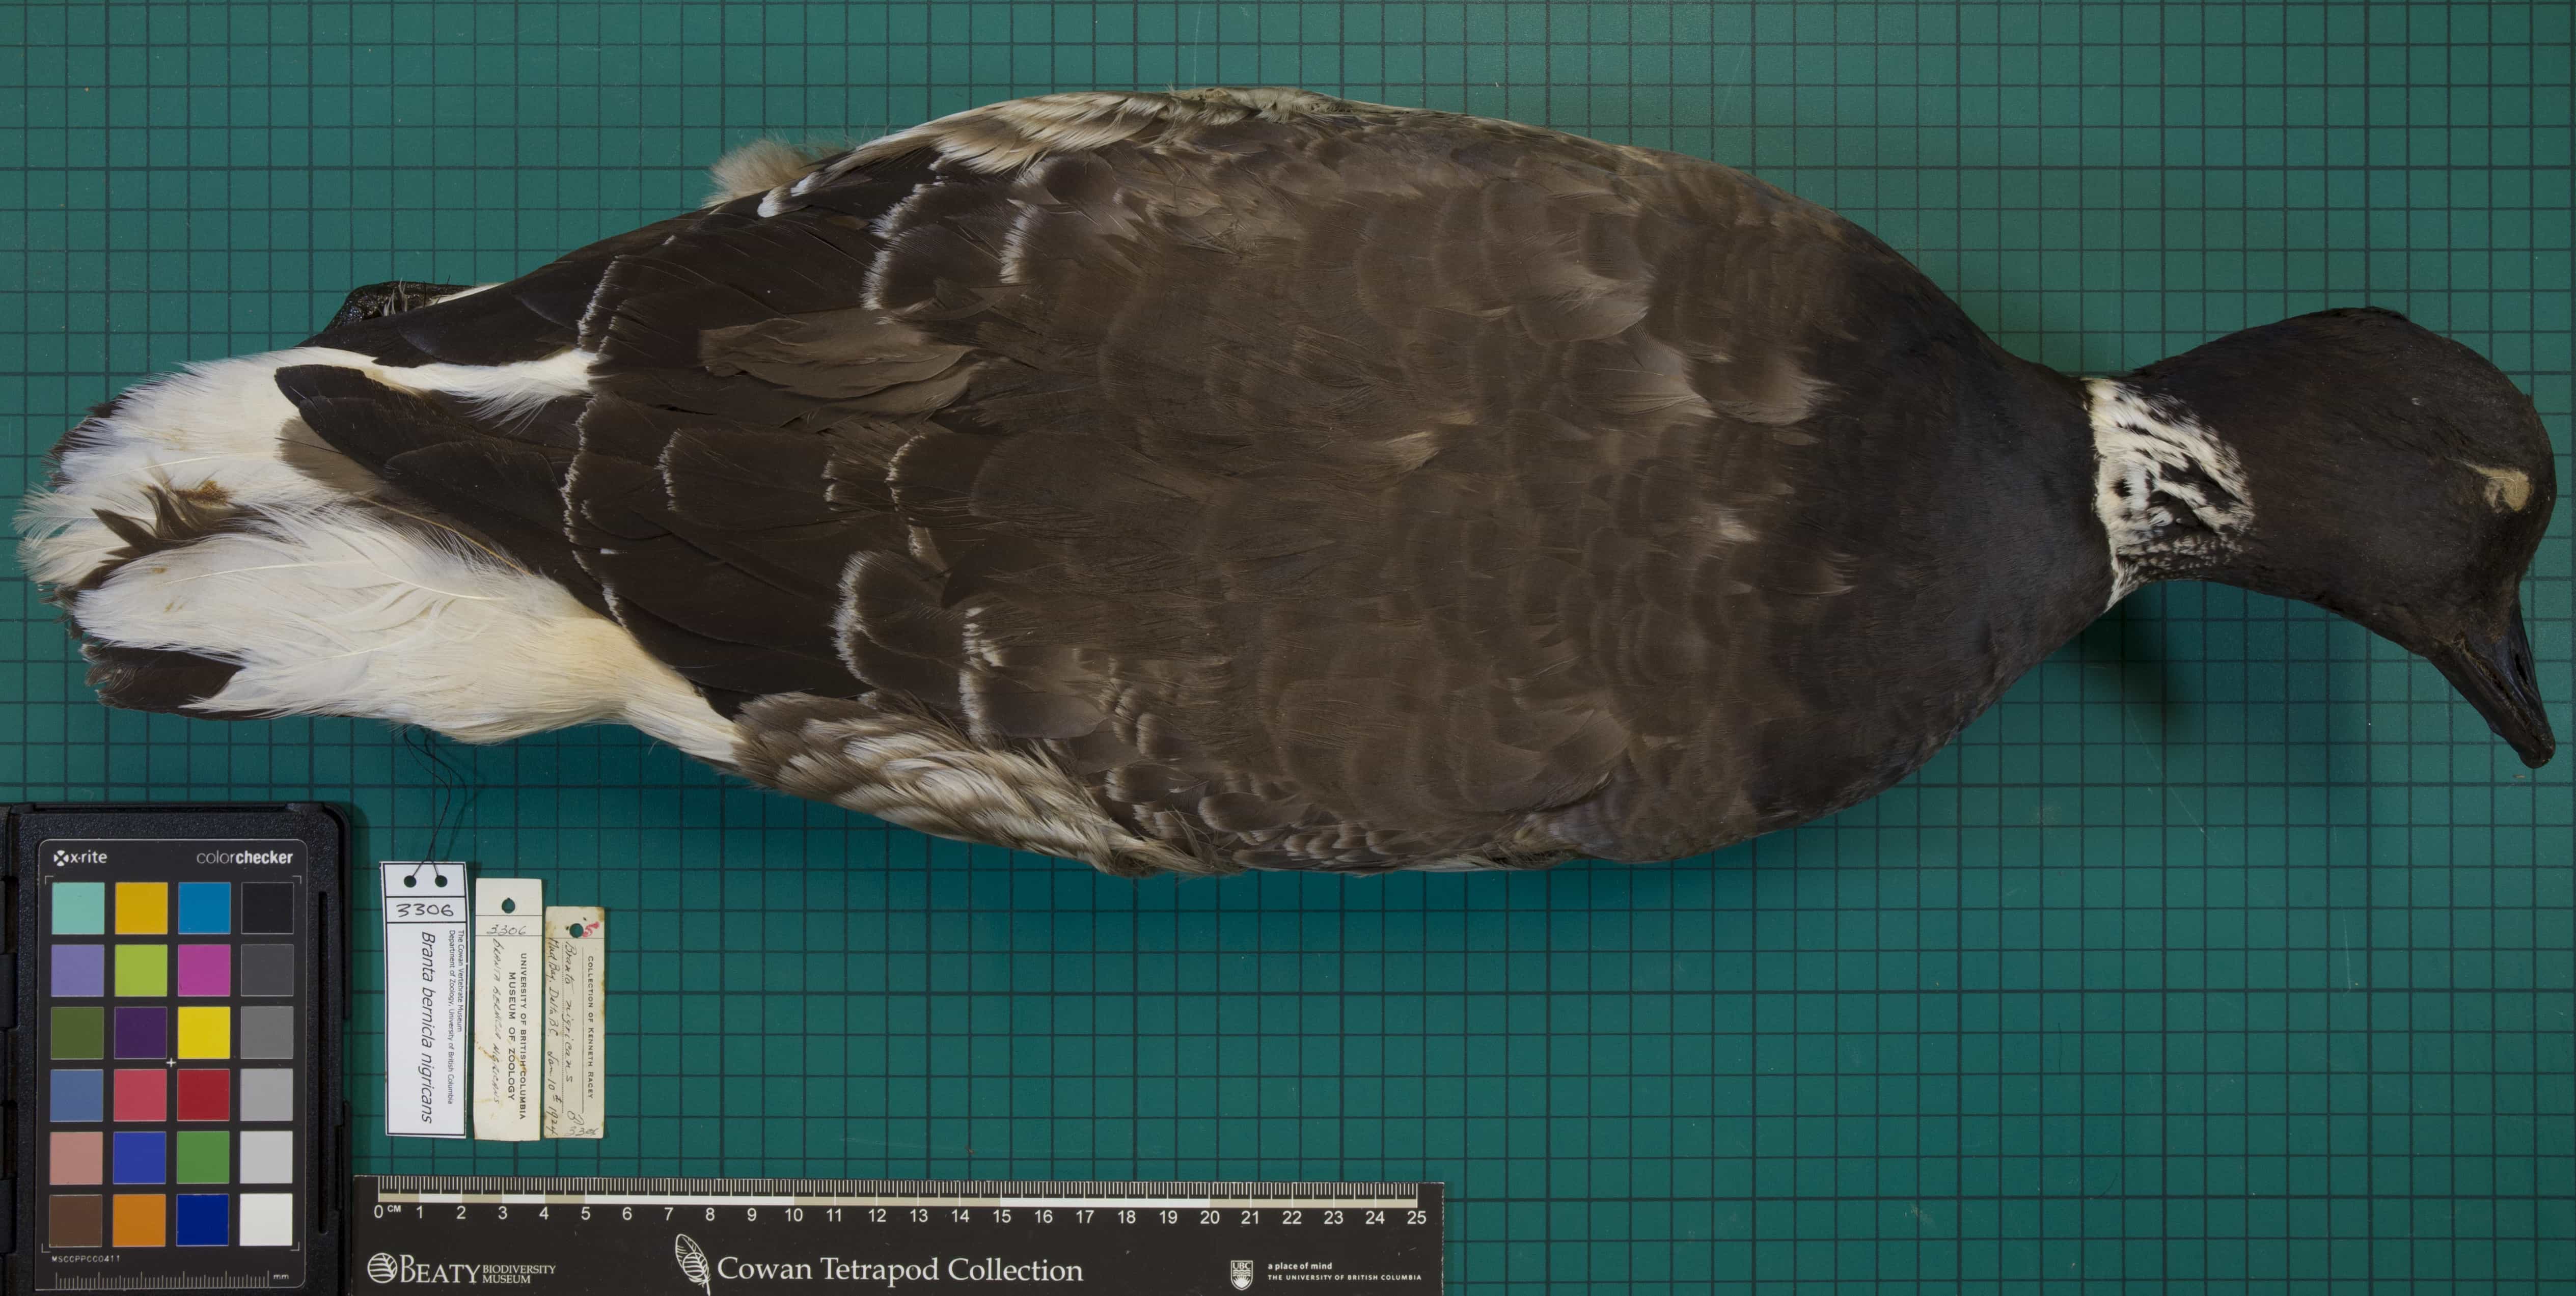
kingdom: Animalia
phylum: Chordata
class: Aves
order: Anseriformes
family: Anatidae
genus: Branta
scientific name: Branta bernicla
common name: Brant
